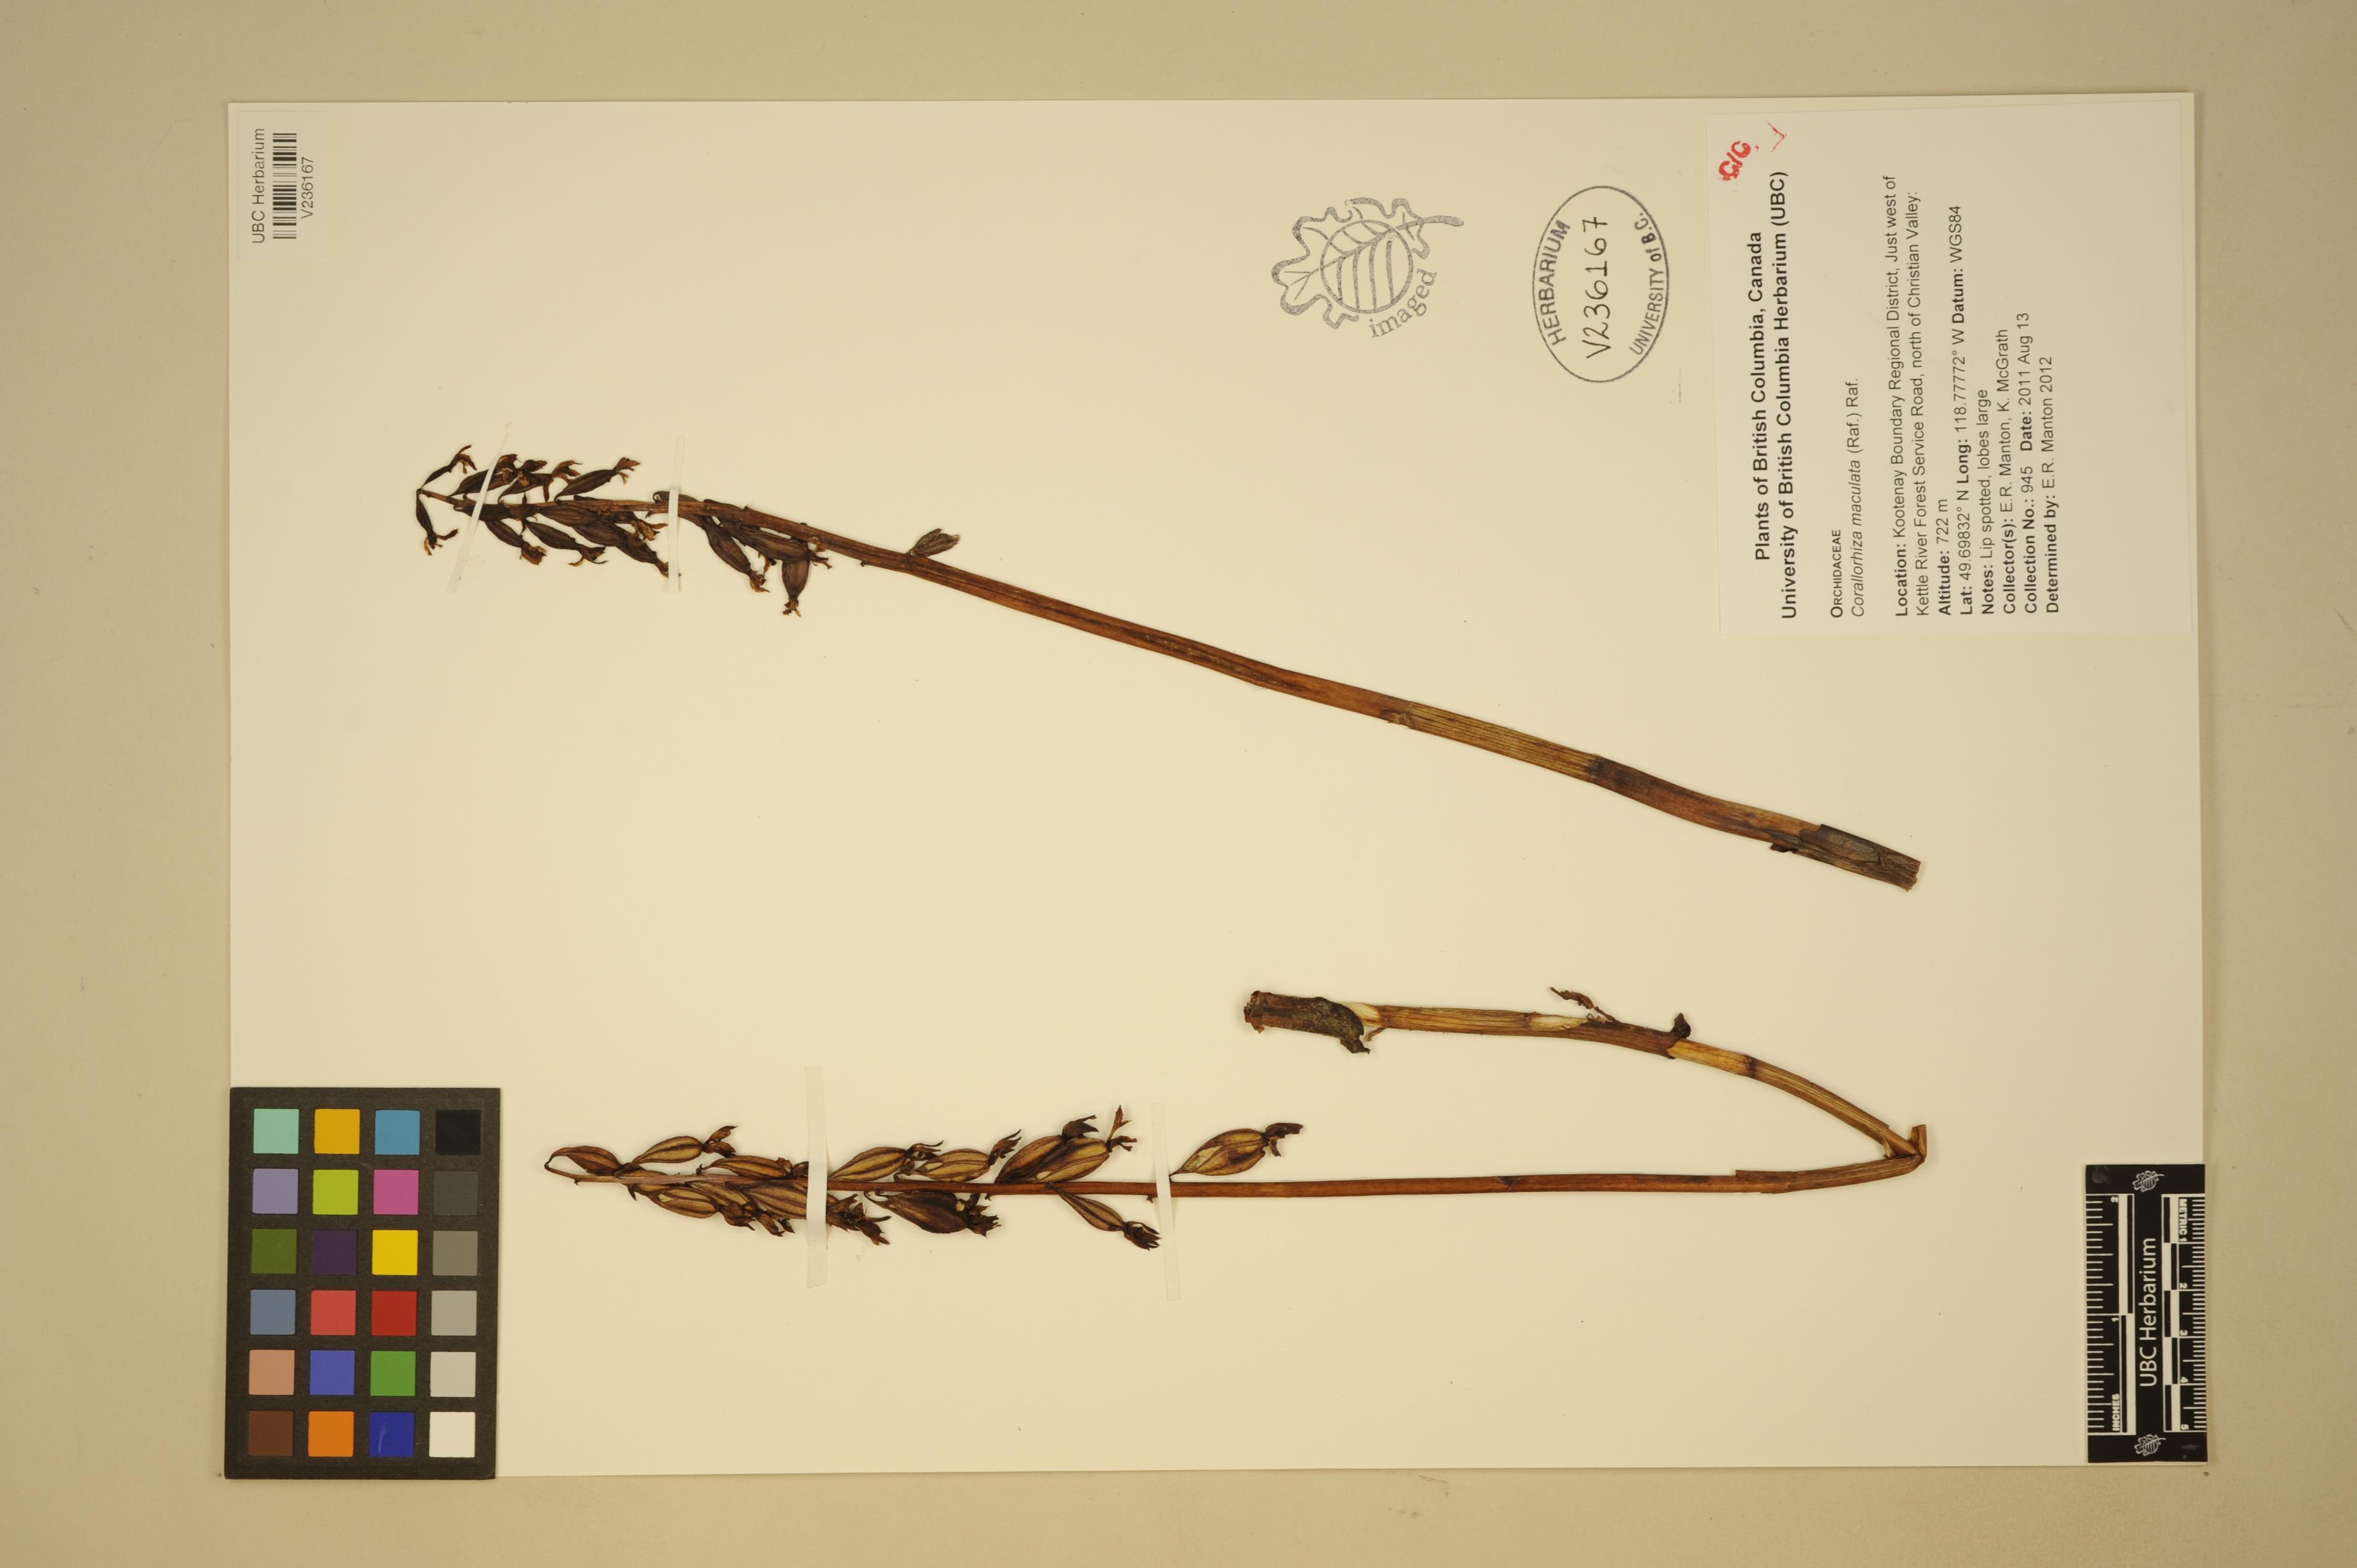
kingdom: Plantae
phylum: Tracheophyta
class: Liliopsida
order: Asparagales
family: Orchidaceae
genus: Corallorhiza
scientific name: Corallorhiza maculata
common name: Spotted coralroot
